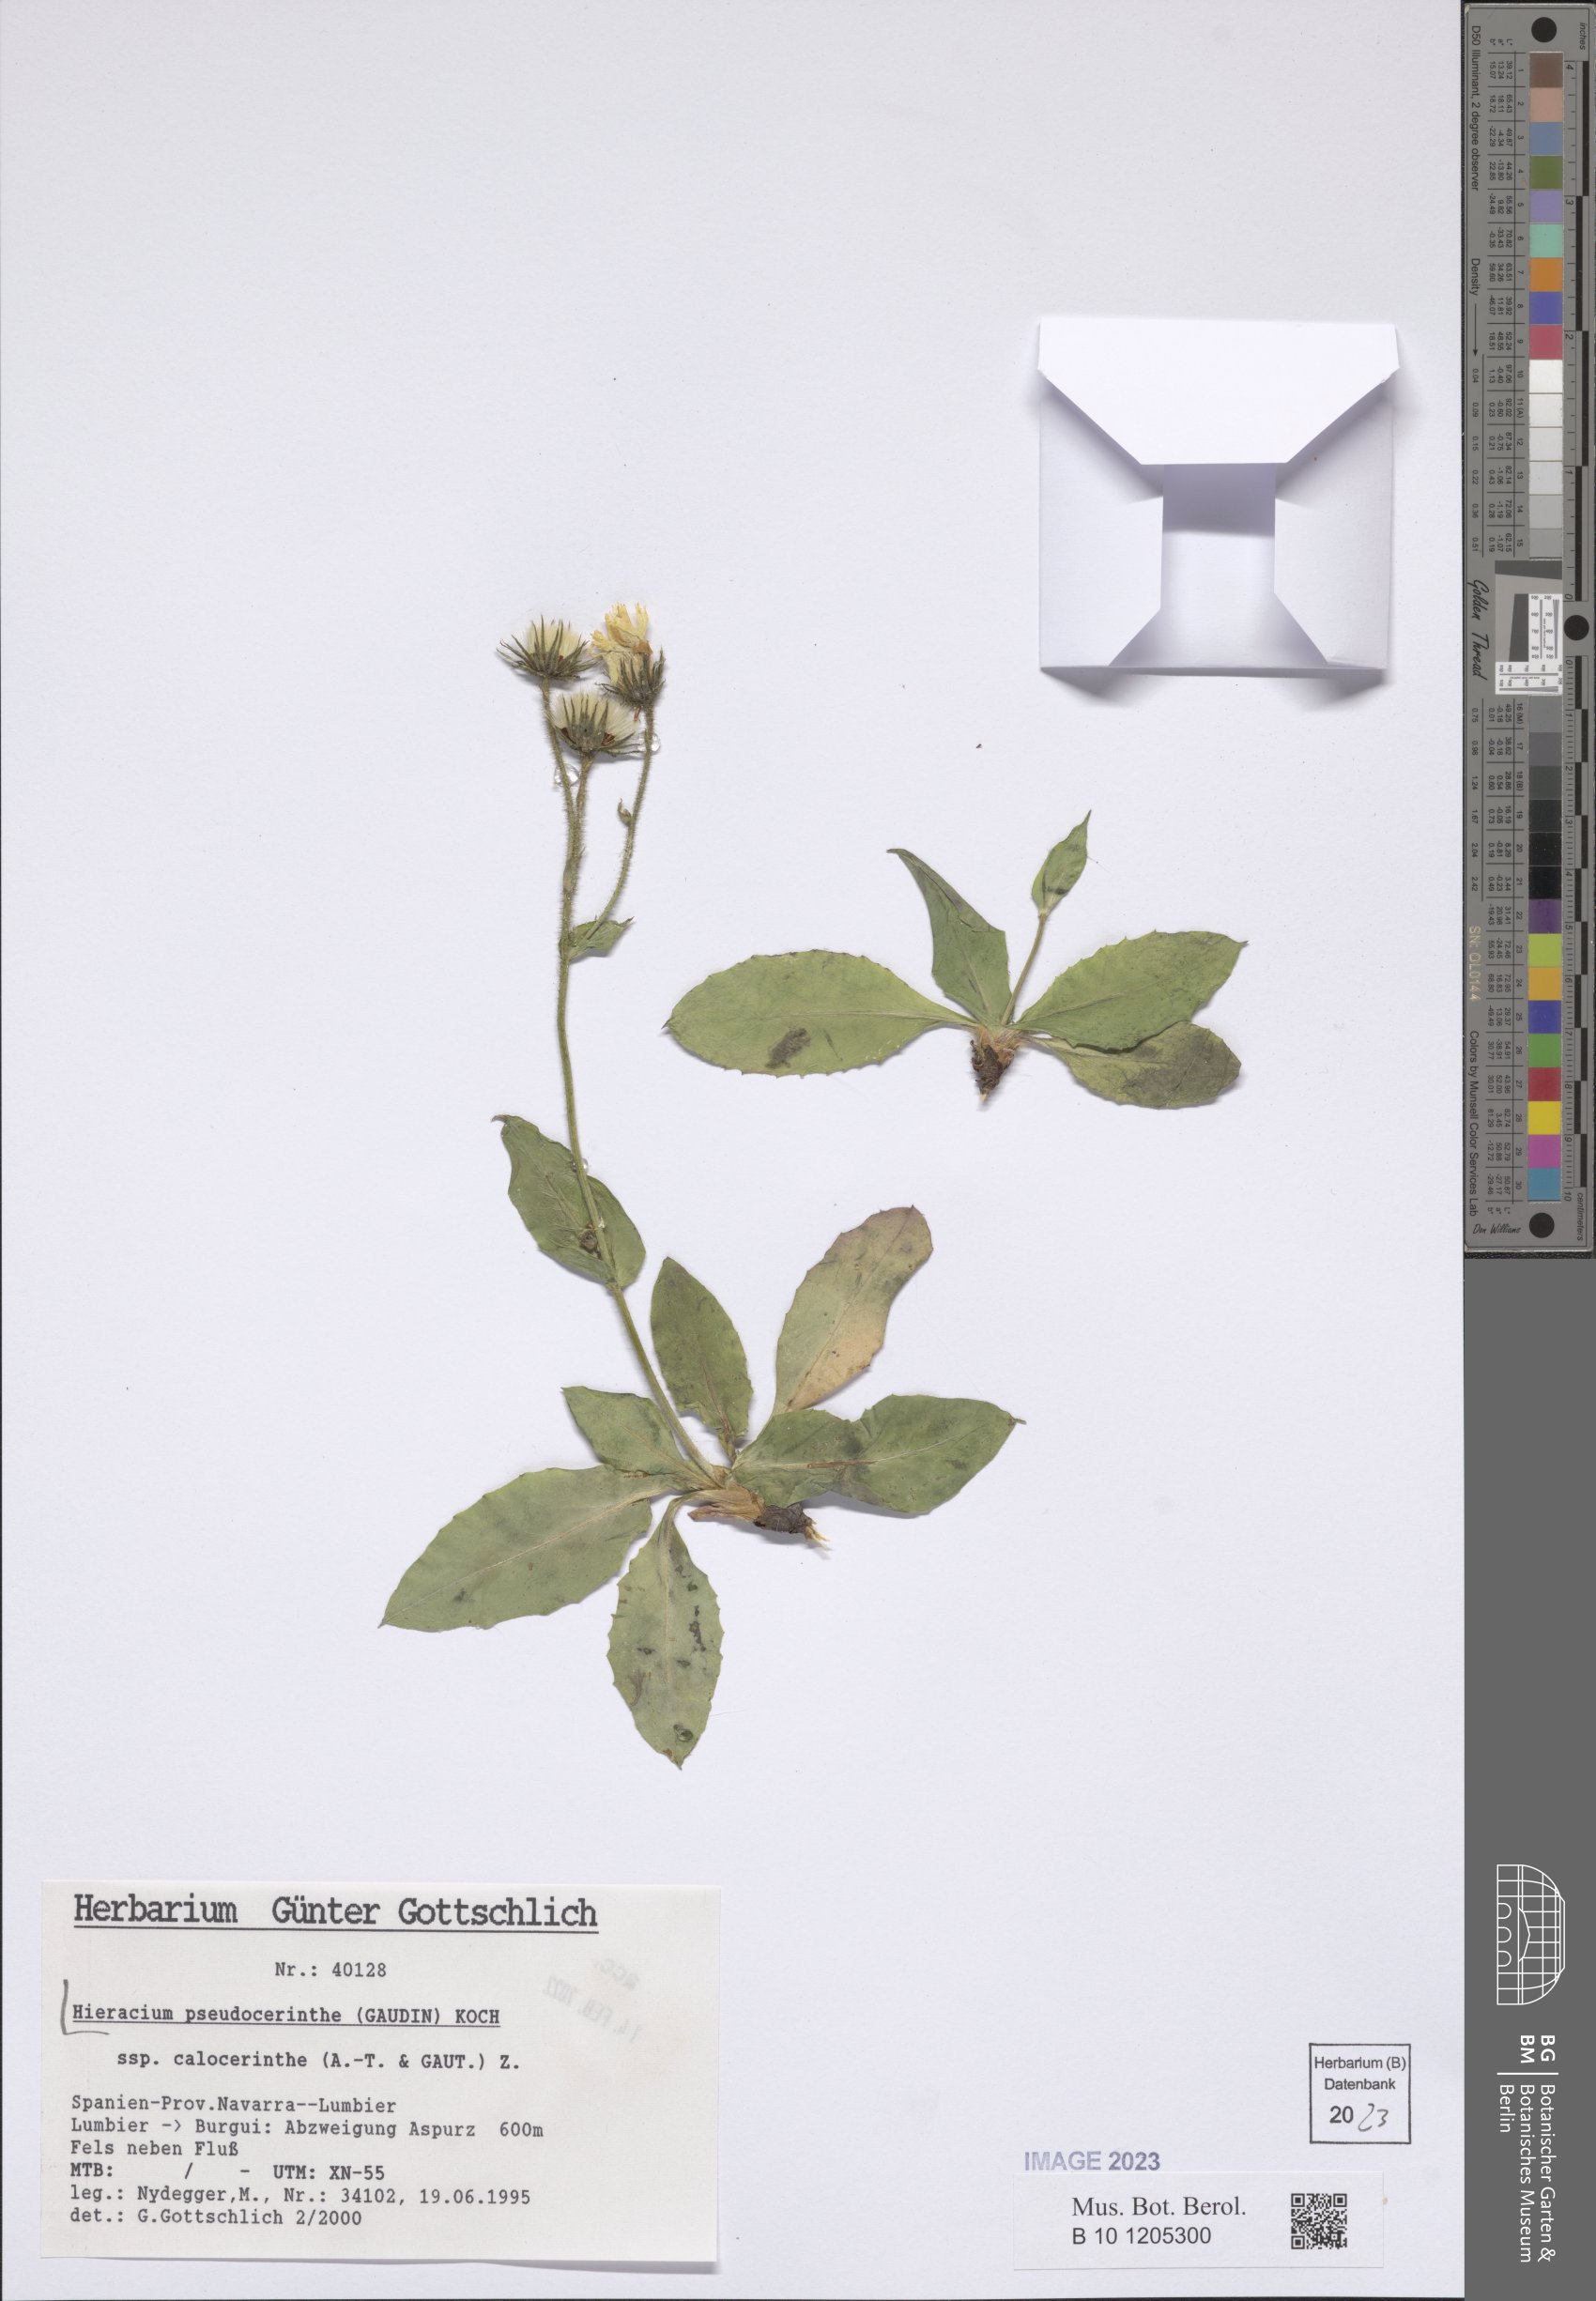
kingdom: Plantae
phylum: Tracheophyta
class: Magnoliopsida
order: Asterales
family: Asteraceae
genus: Hieracium
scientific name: Hieracium pseudocerinthe
